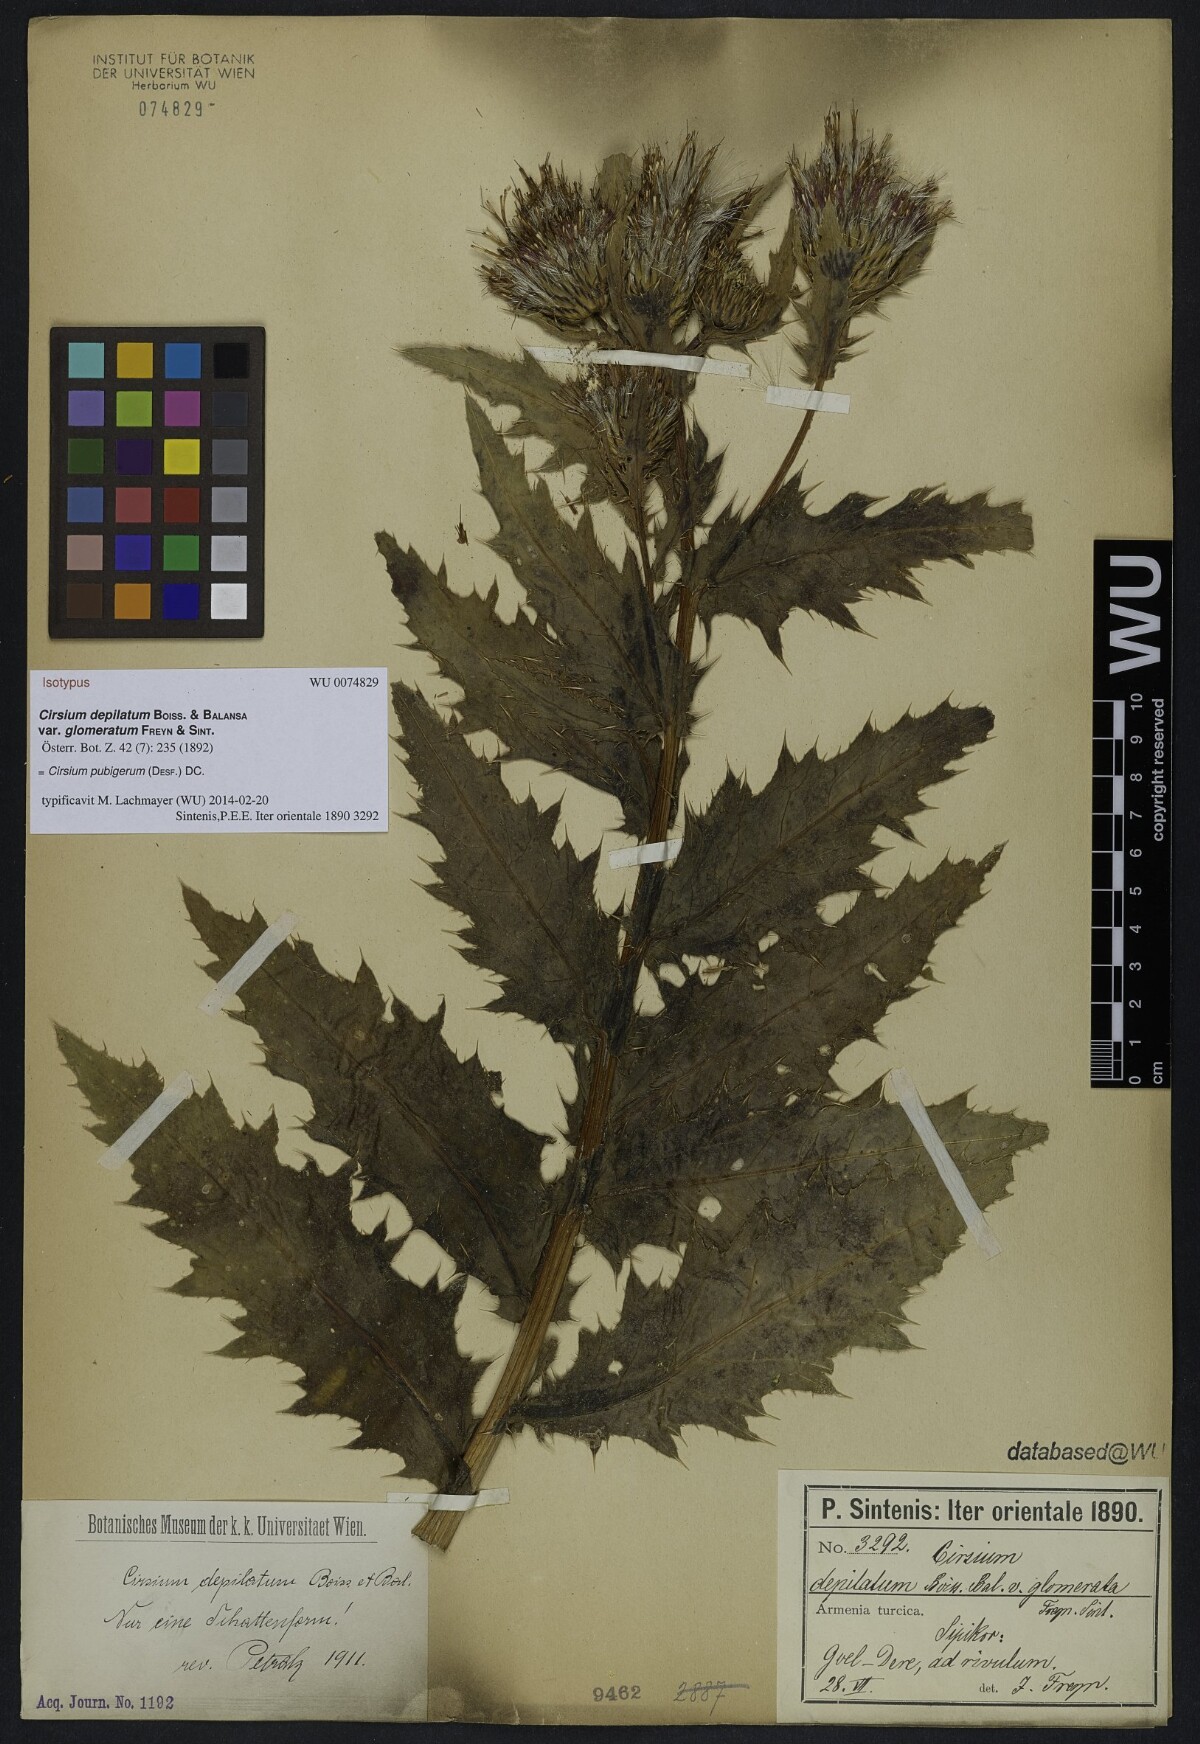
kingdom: Plantae
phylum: Tracheophyta
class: Magnoliopsida
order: Asterales
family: Asteraceae
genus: Cirsium
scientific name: Cirsium pubigerum
